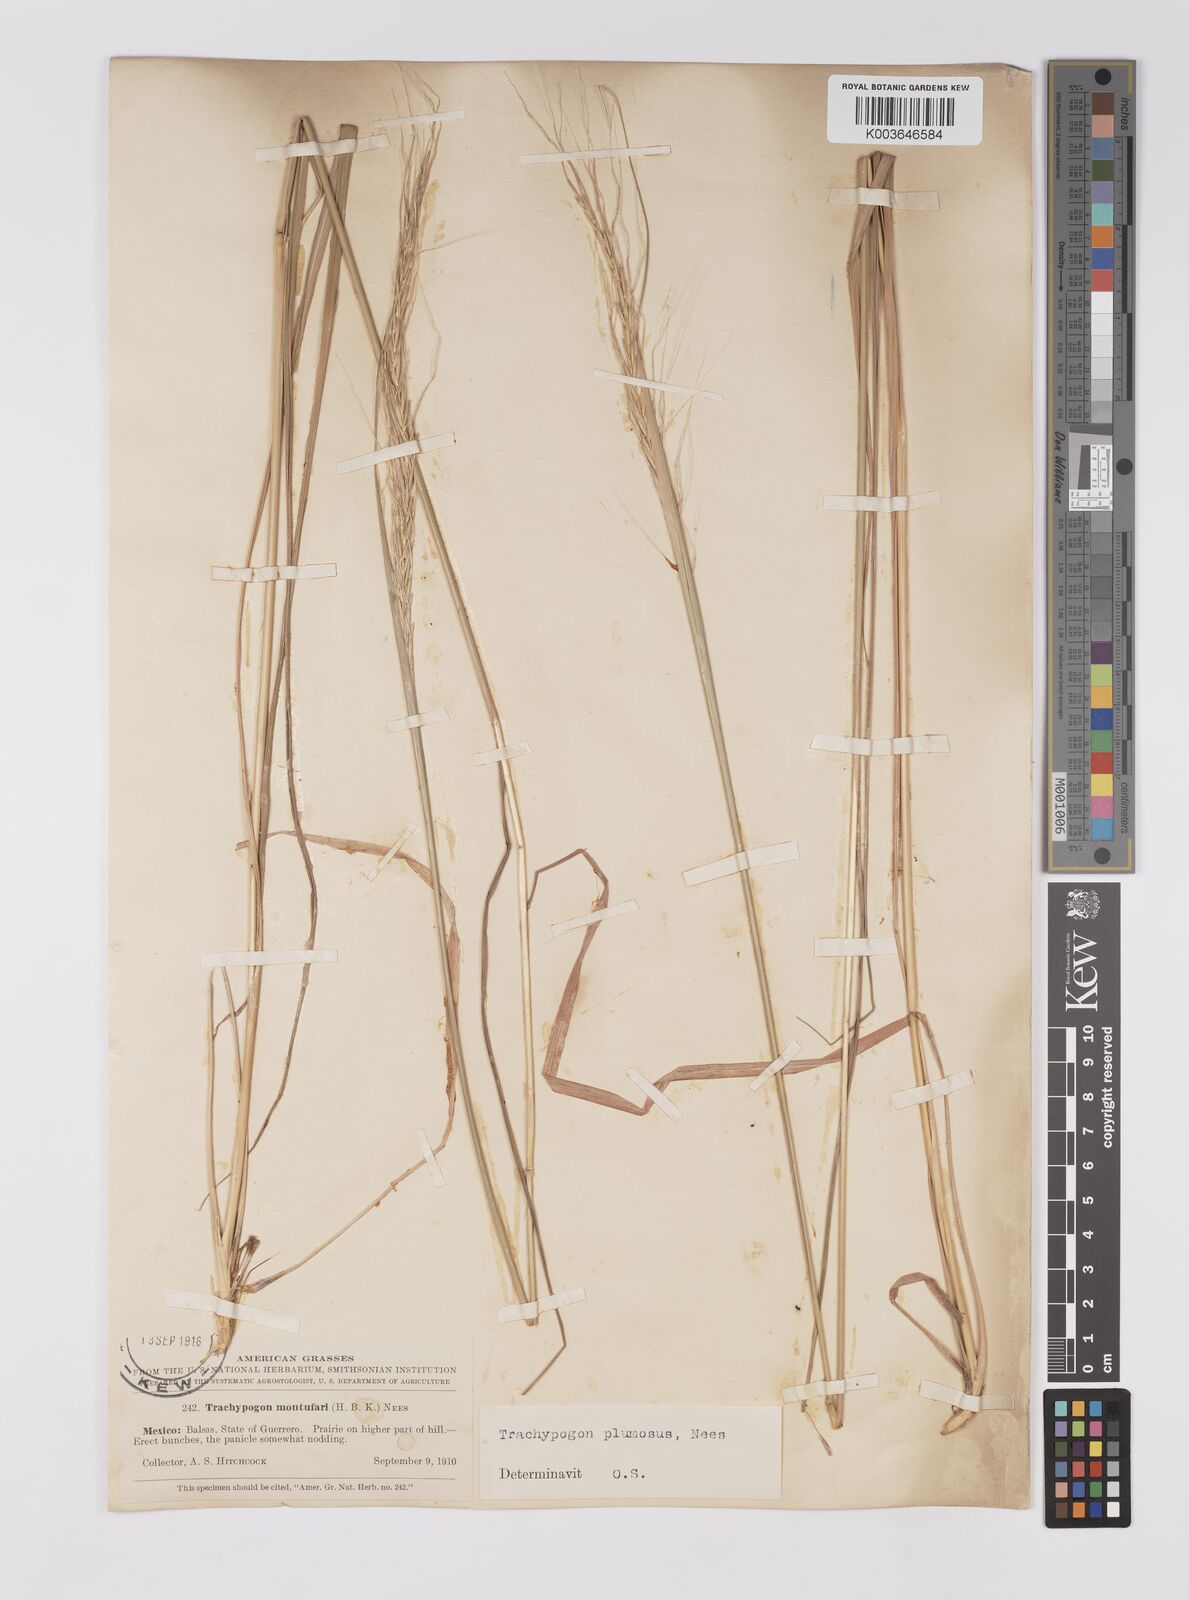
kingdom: Plantae
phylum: Tracheophyta
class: Liliopsida
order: Poales
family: Poaceae
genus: Trachypogon
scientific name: Trachypogon spicatus
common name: Crinkle-awn
